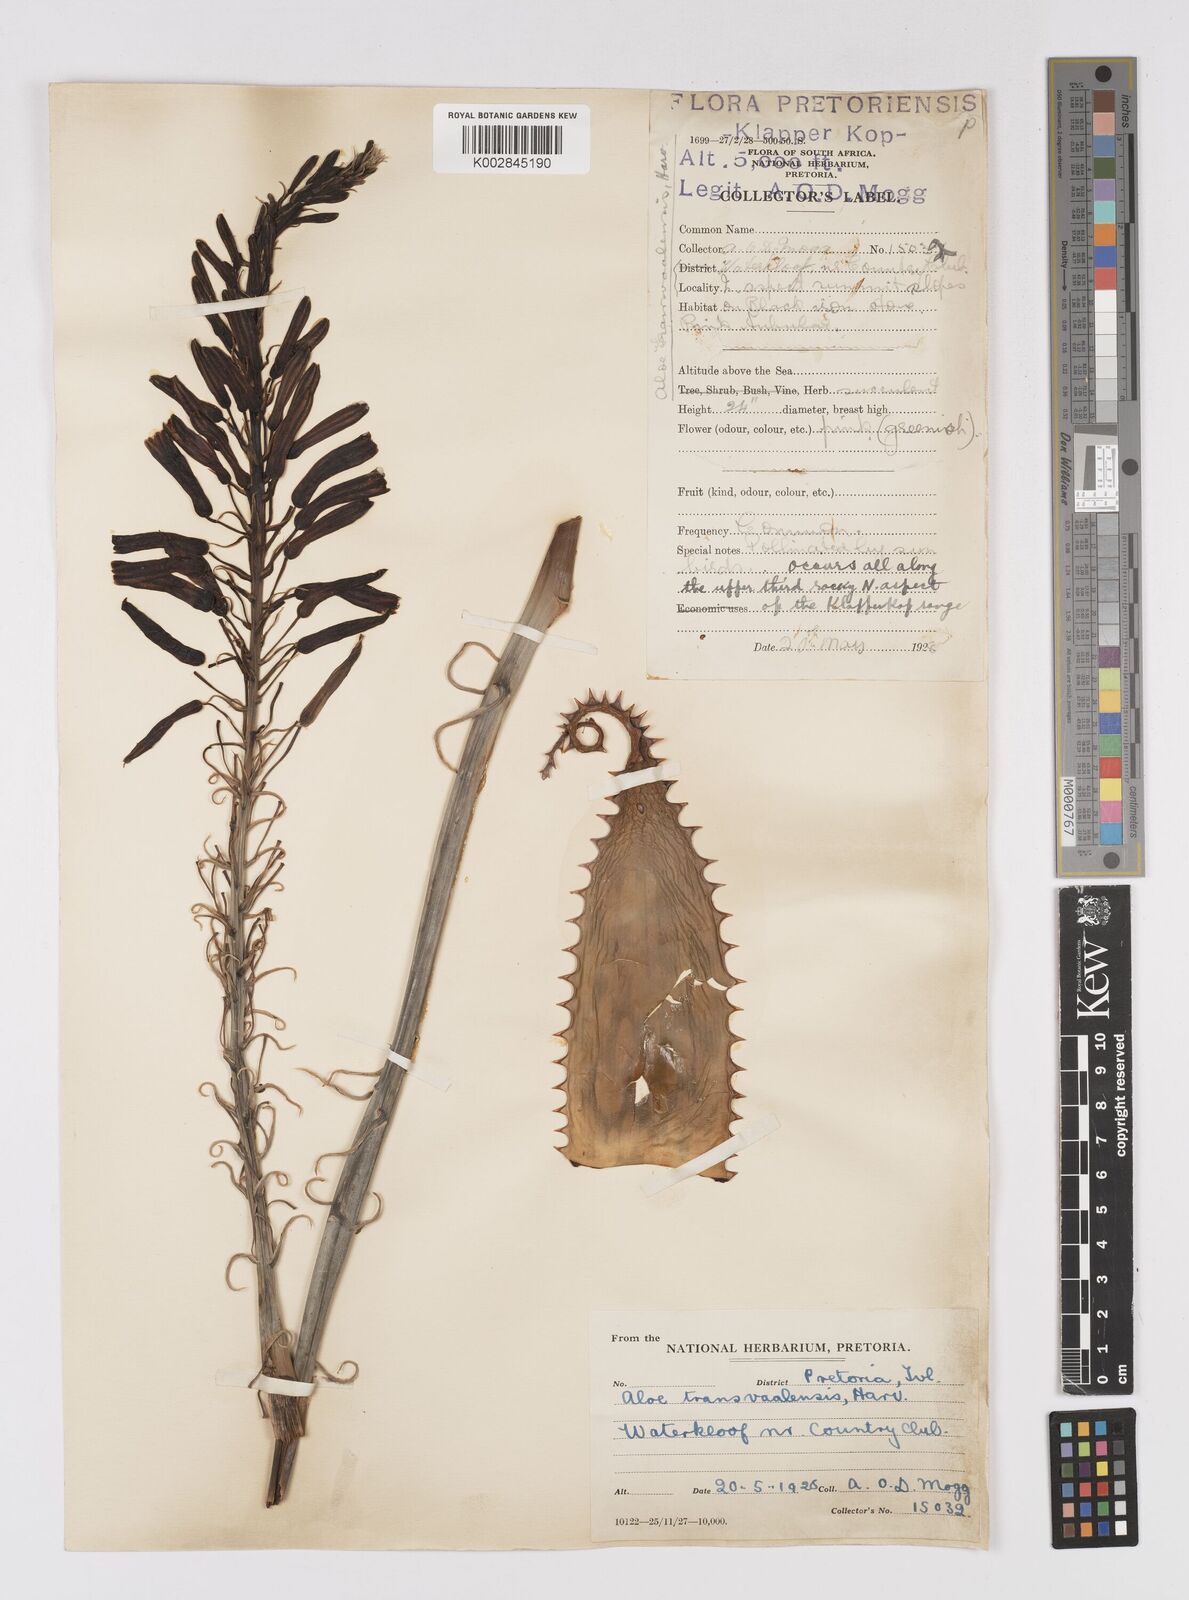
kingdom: Plantae
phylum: Tracheophyta
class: Liliopsida
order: Asparagales
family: Asphodelaceae
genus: Aloe
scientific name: Aloe transvaalensis
